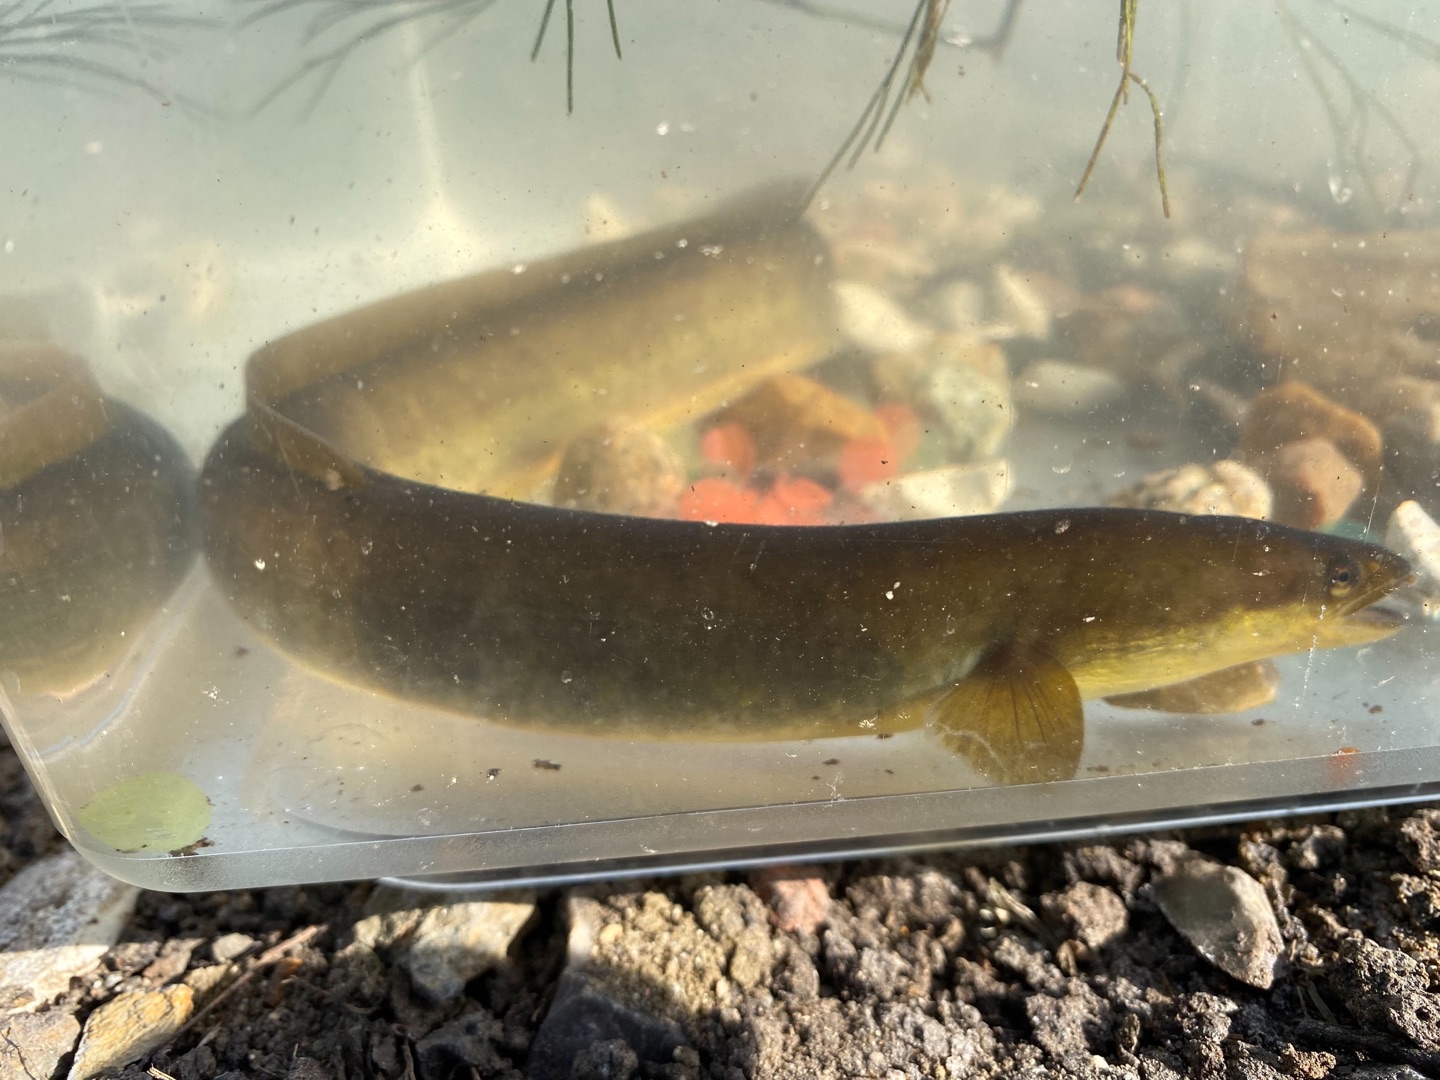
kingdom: Animalia
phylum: Chordata
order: Anguilliformes
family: Anguillidae
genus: Anguilla
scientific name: Anguilla anguilla
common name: Europæisk ål
